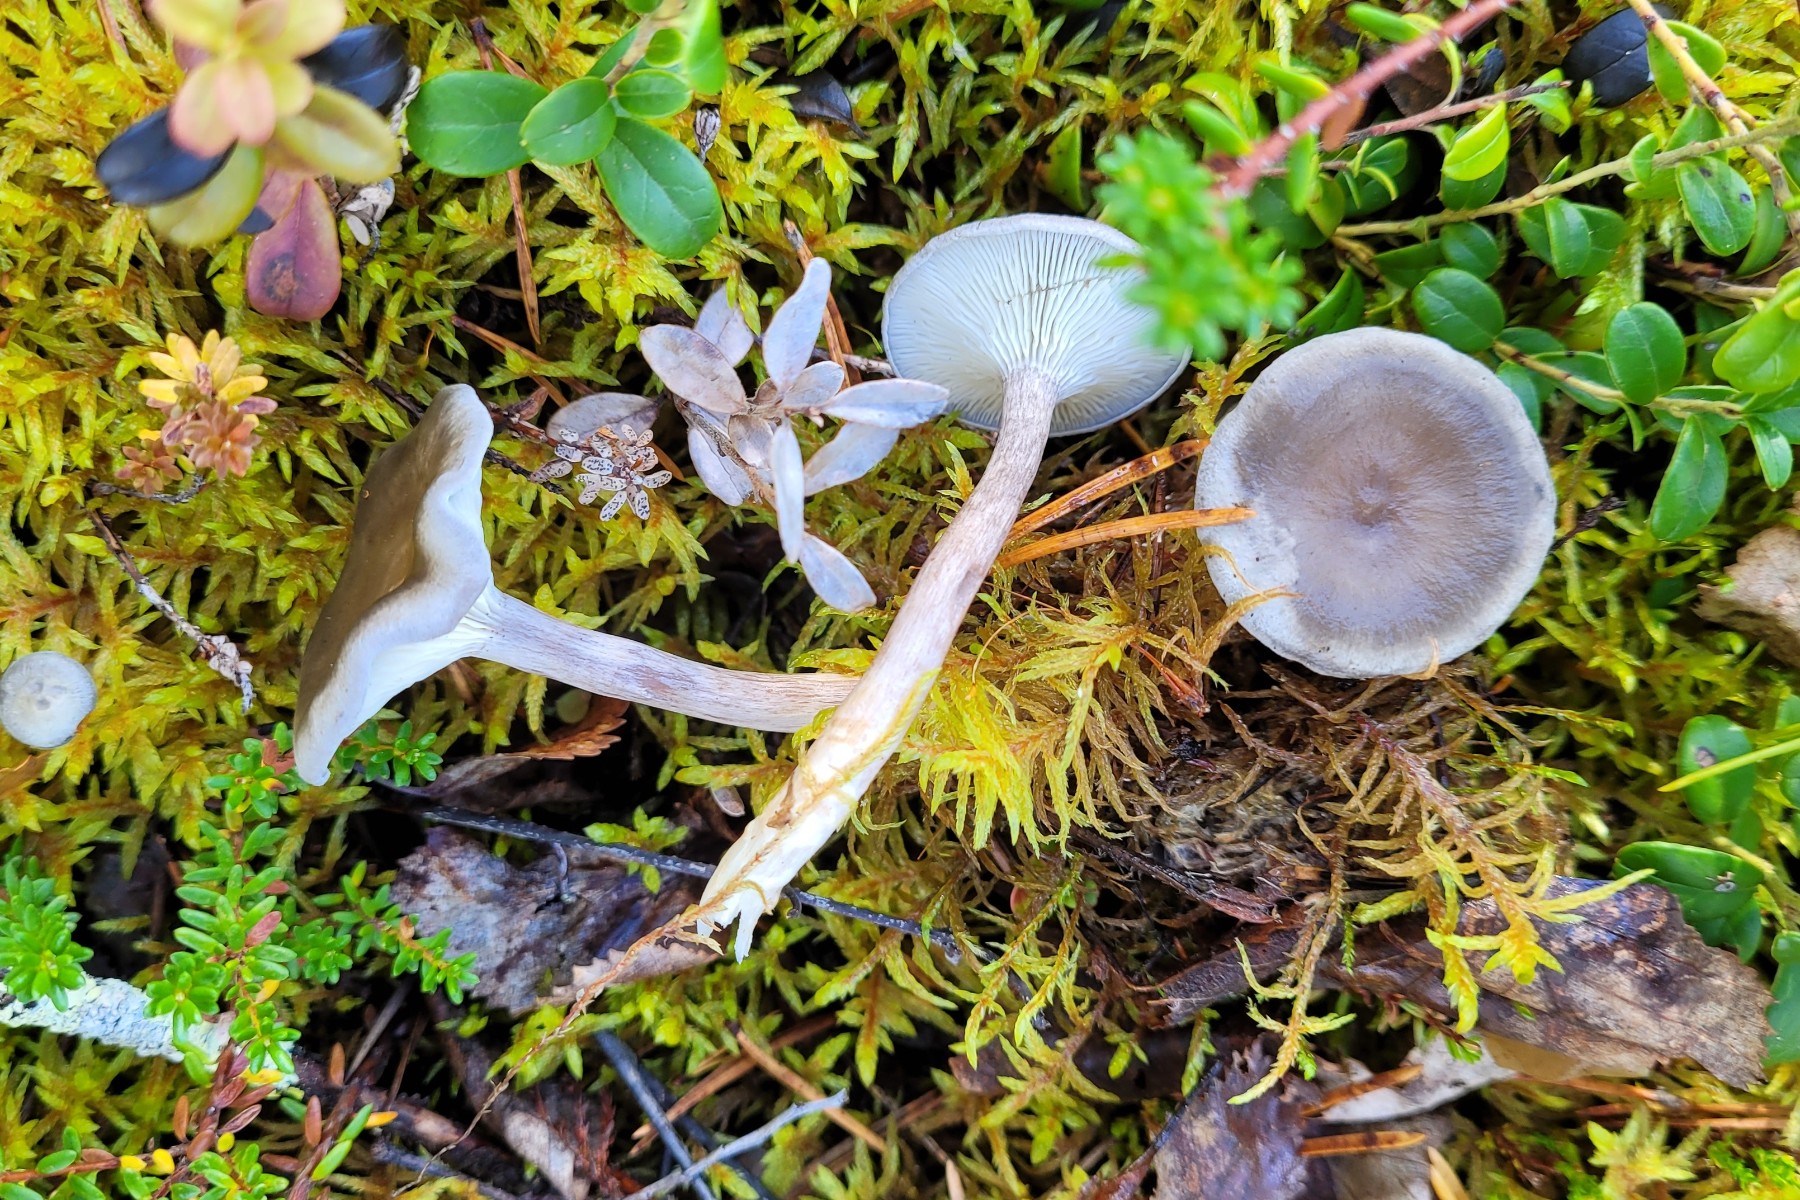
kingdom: Fungi
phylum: Basidiomycota
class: Agaricomycetes
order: Agaricales
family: Hygrophoraceae
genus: Cantharellula
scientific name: Cantharellula umbonata
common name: rødmende gaffelblad
